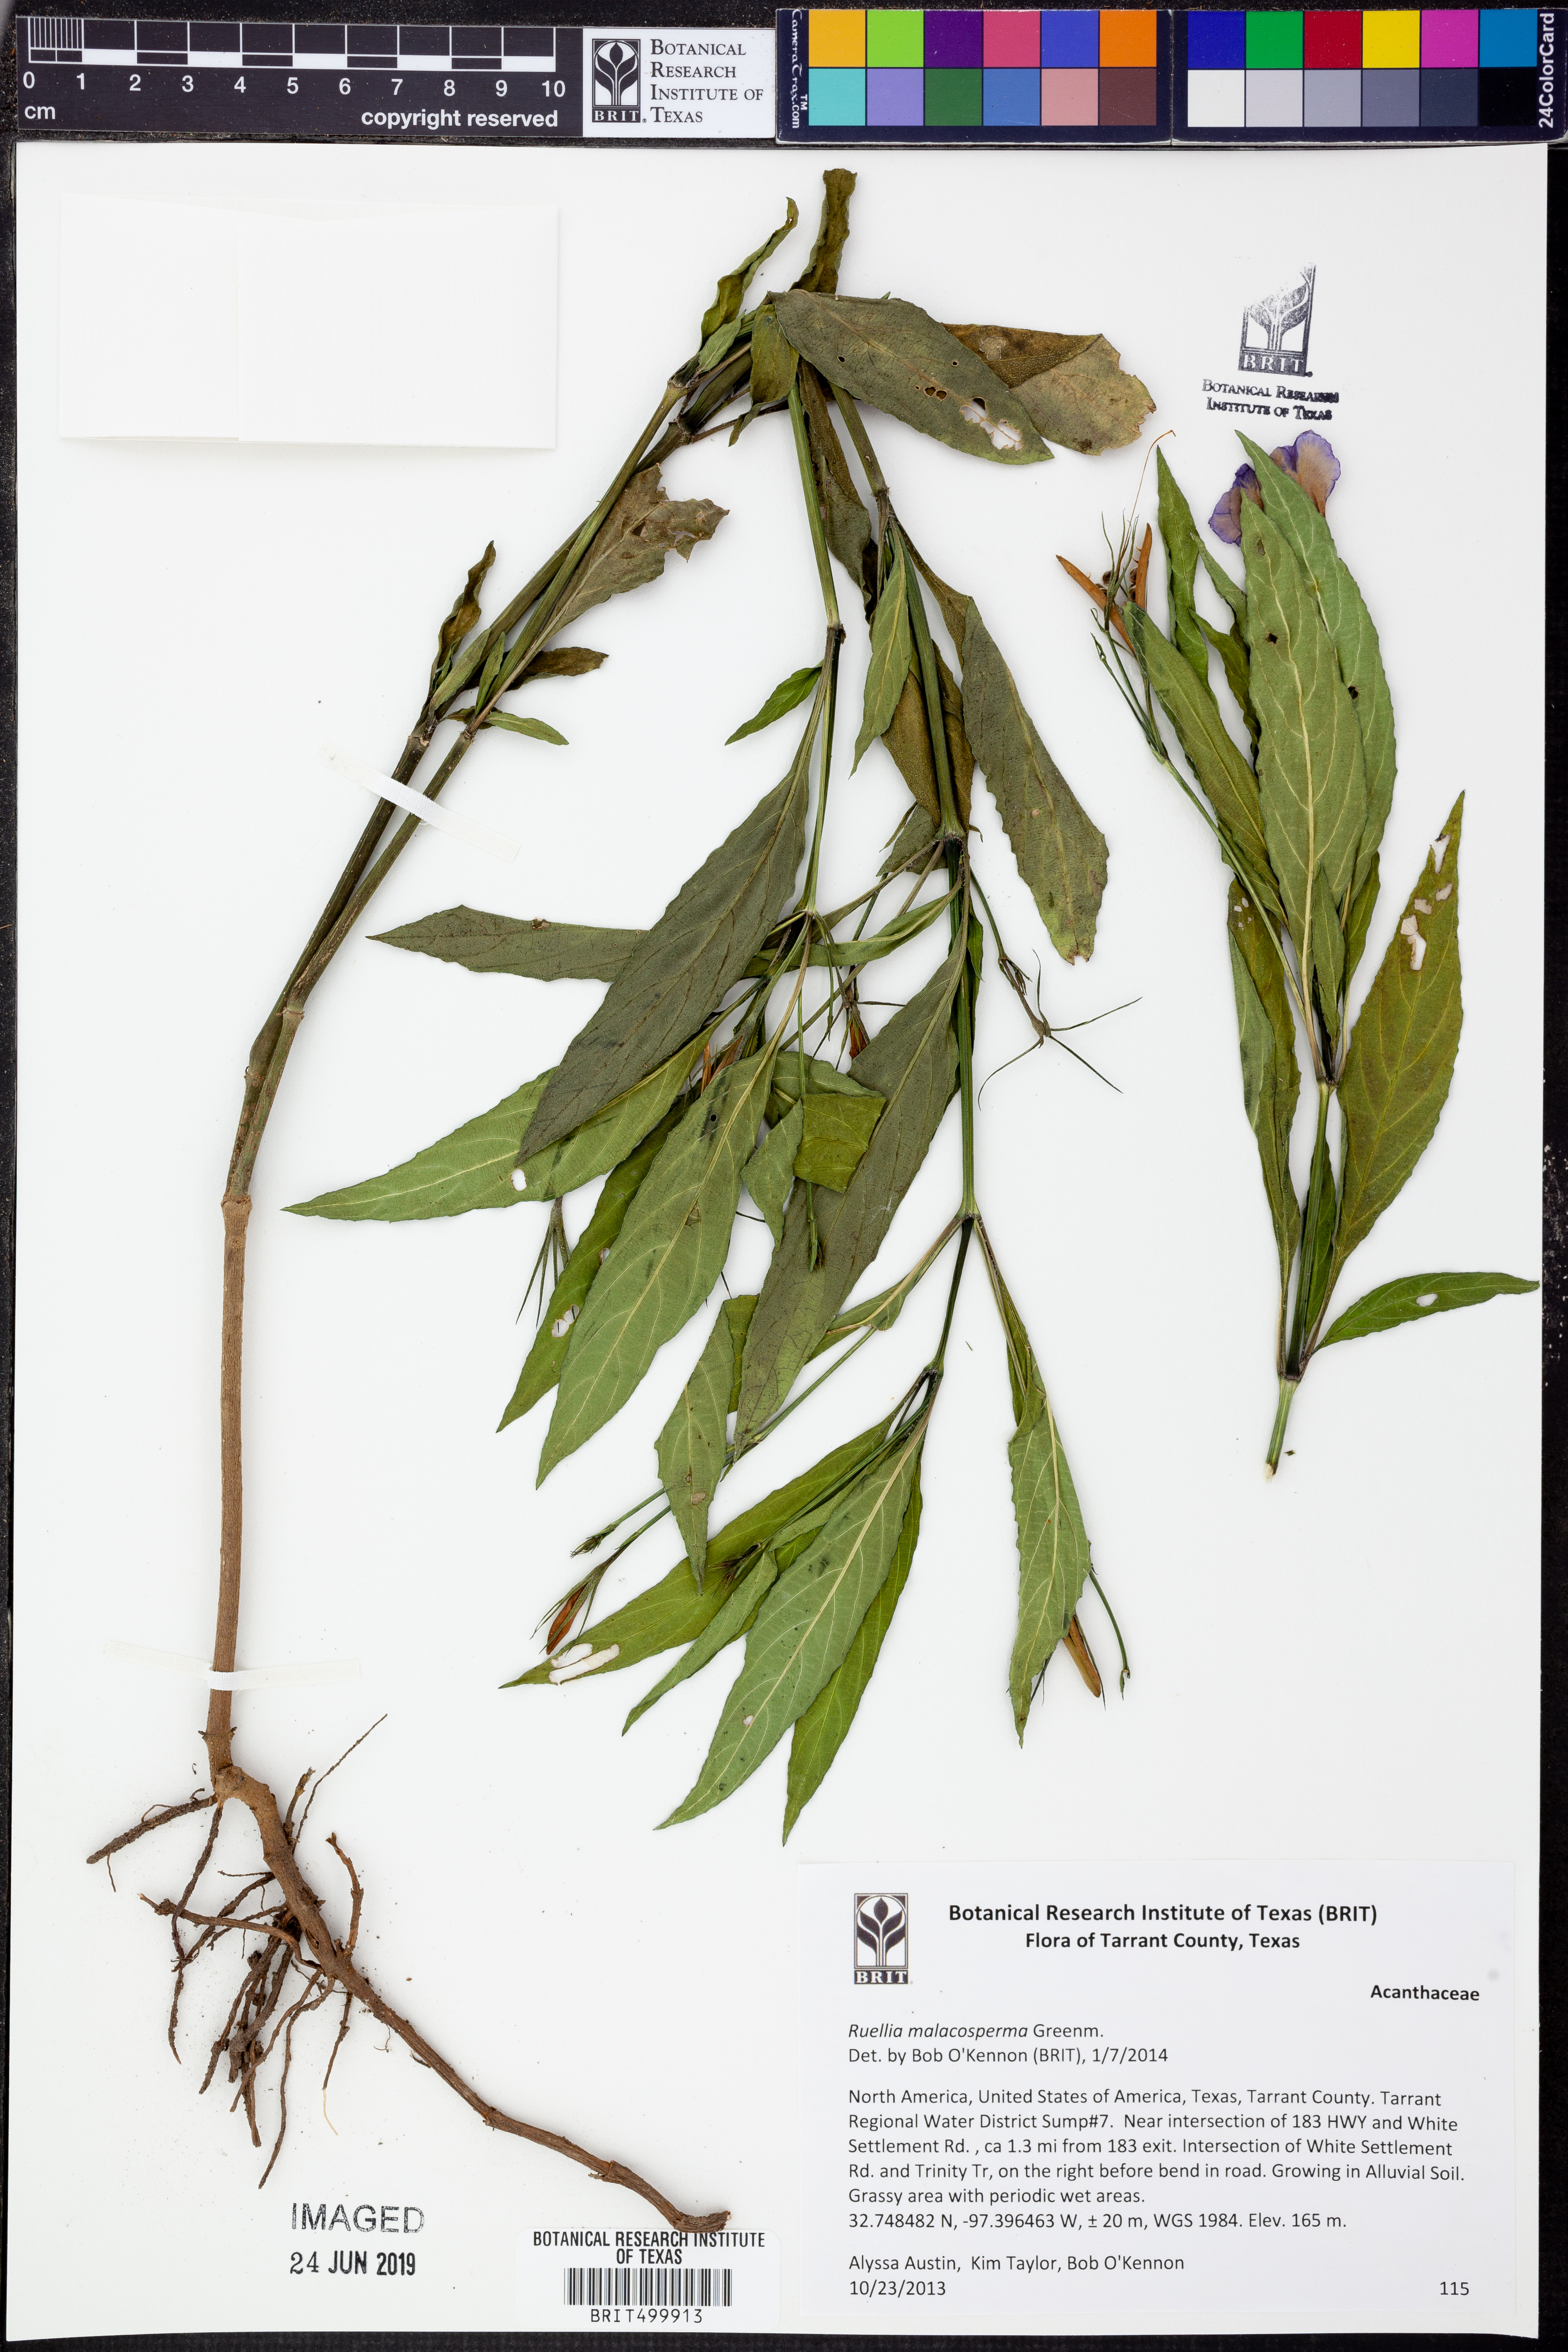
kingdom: Plantae
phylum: Tracheophyta
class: Magnoliopsida
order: Lamiales
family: Acanthaceae
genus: Ruellia
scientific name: Ruellia malacosperma
